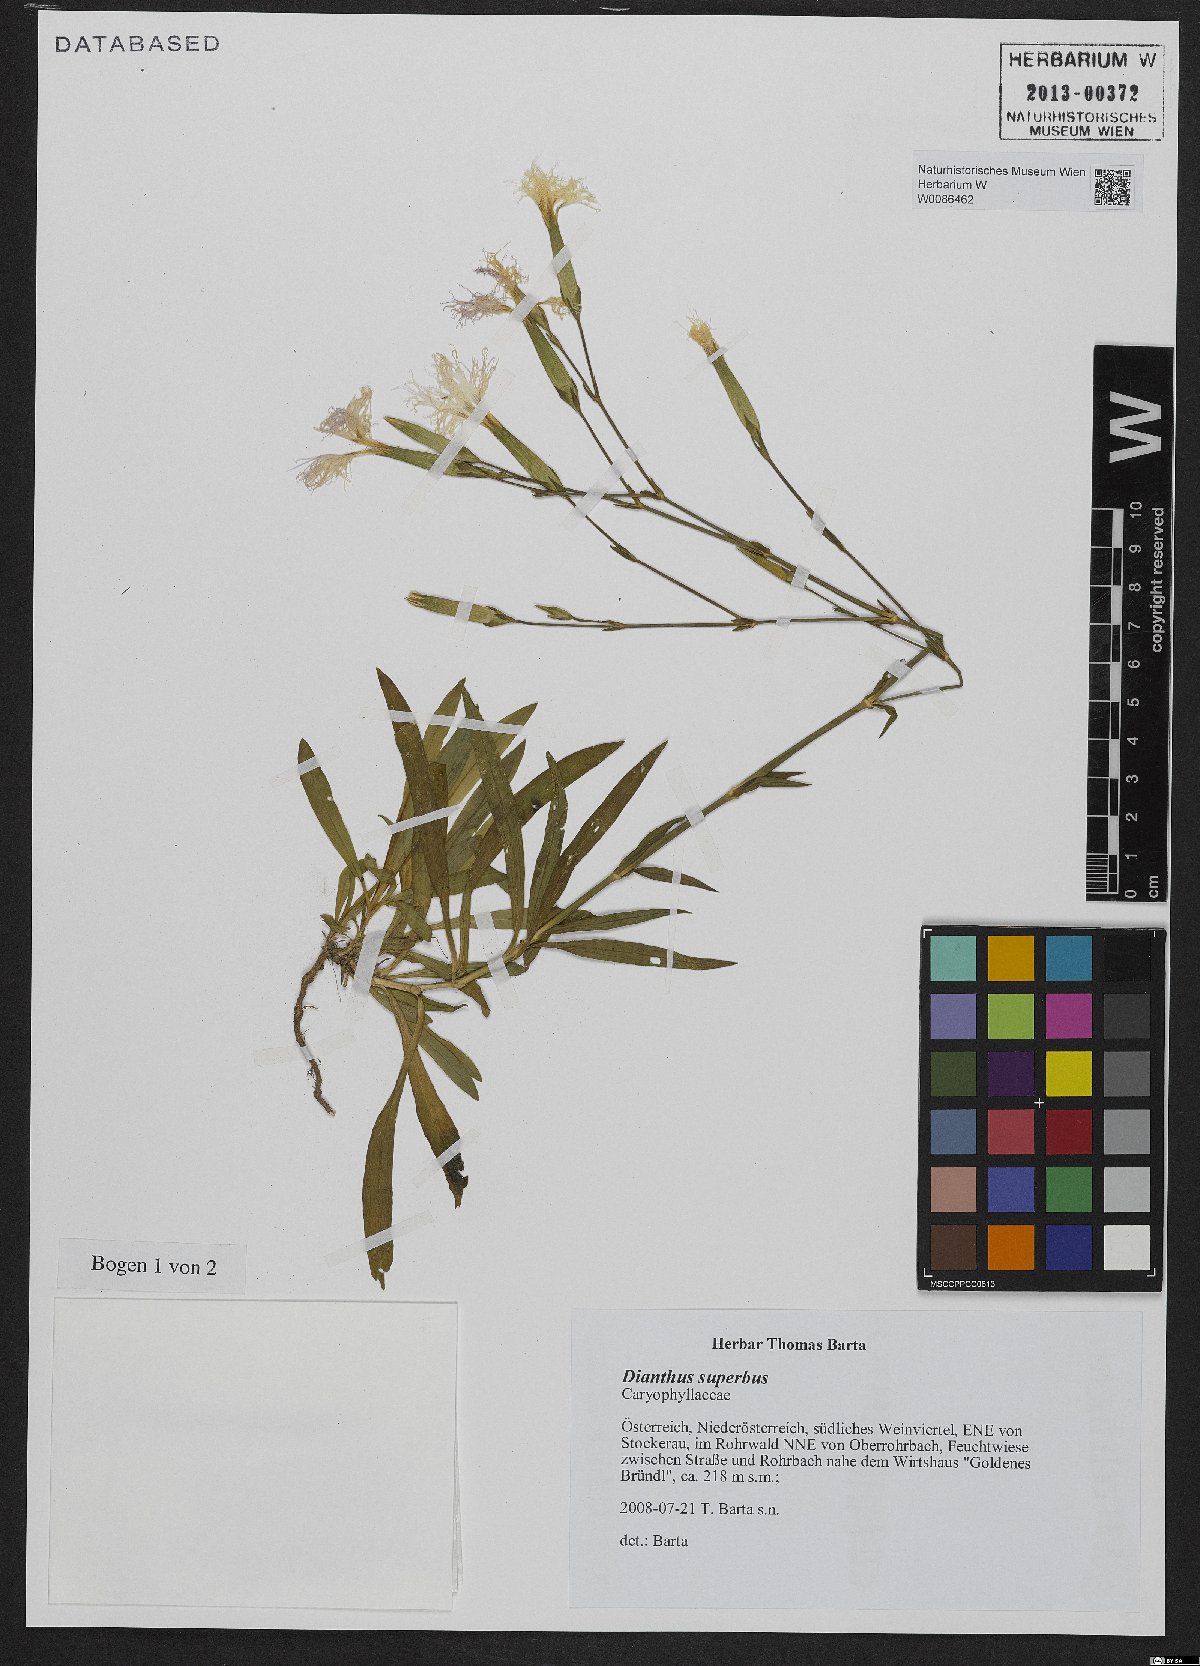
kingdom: Plantae
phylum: Tracheophyta
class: Magnoliopsida
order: Caryophyllales
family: Caryophyllaceae
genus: Dianthus
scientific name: Dianthus superbus
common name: Fringed pink
